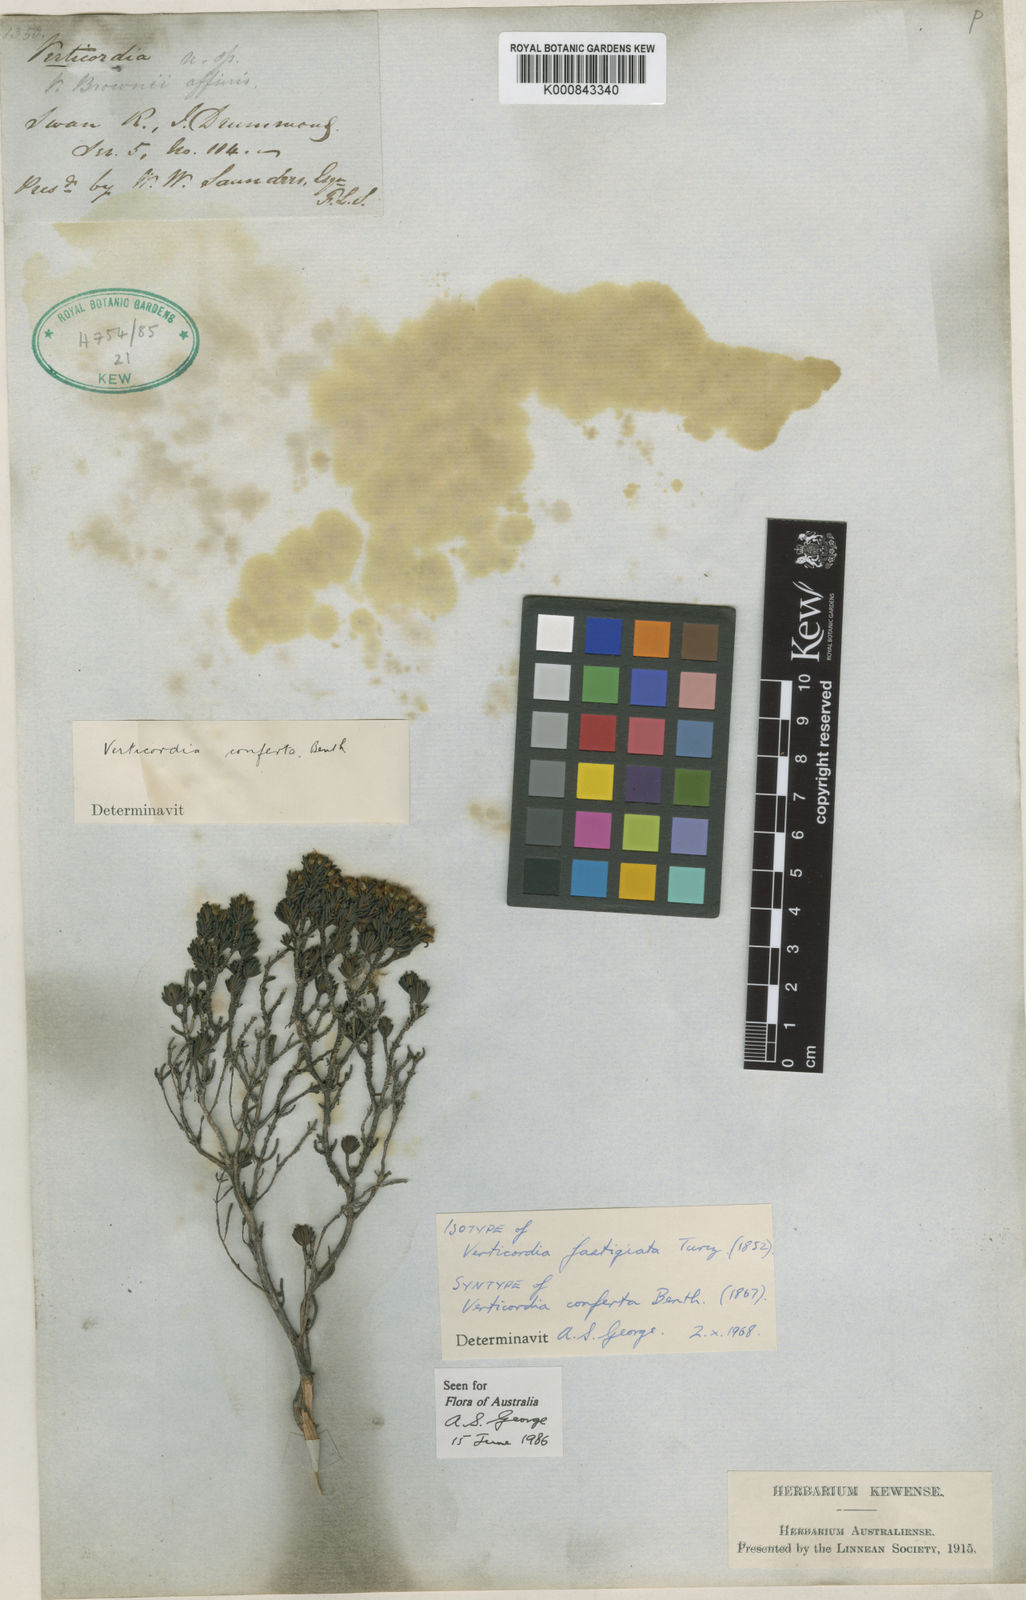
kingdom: Plantae
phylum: Tracheophyta
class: Magnoliopsida
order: Myrtales
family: Myrtaceae
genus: Verticordia
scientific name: Verticordia fastigiata
